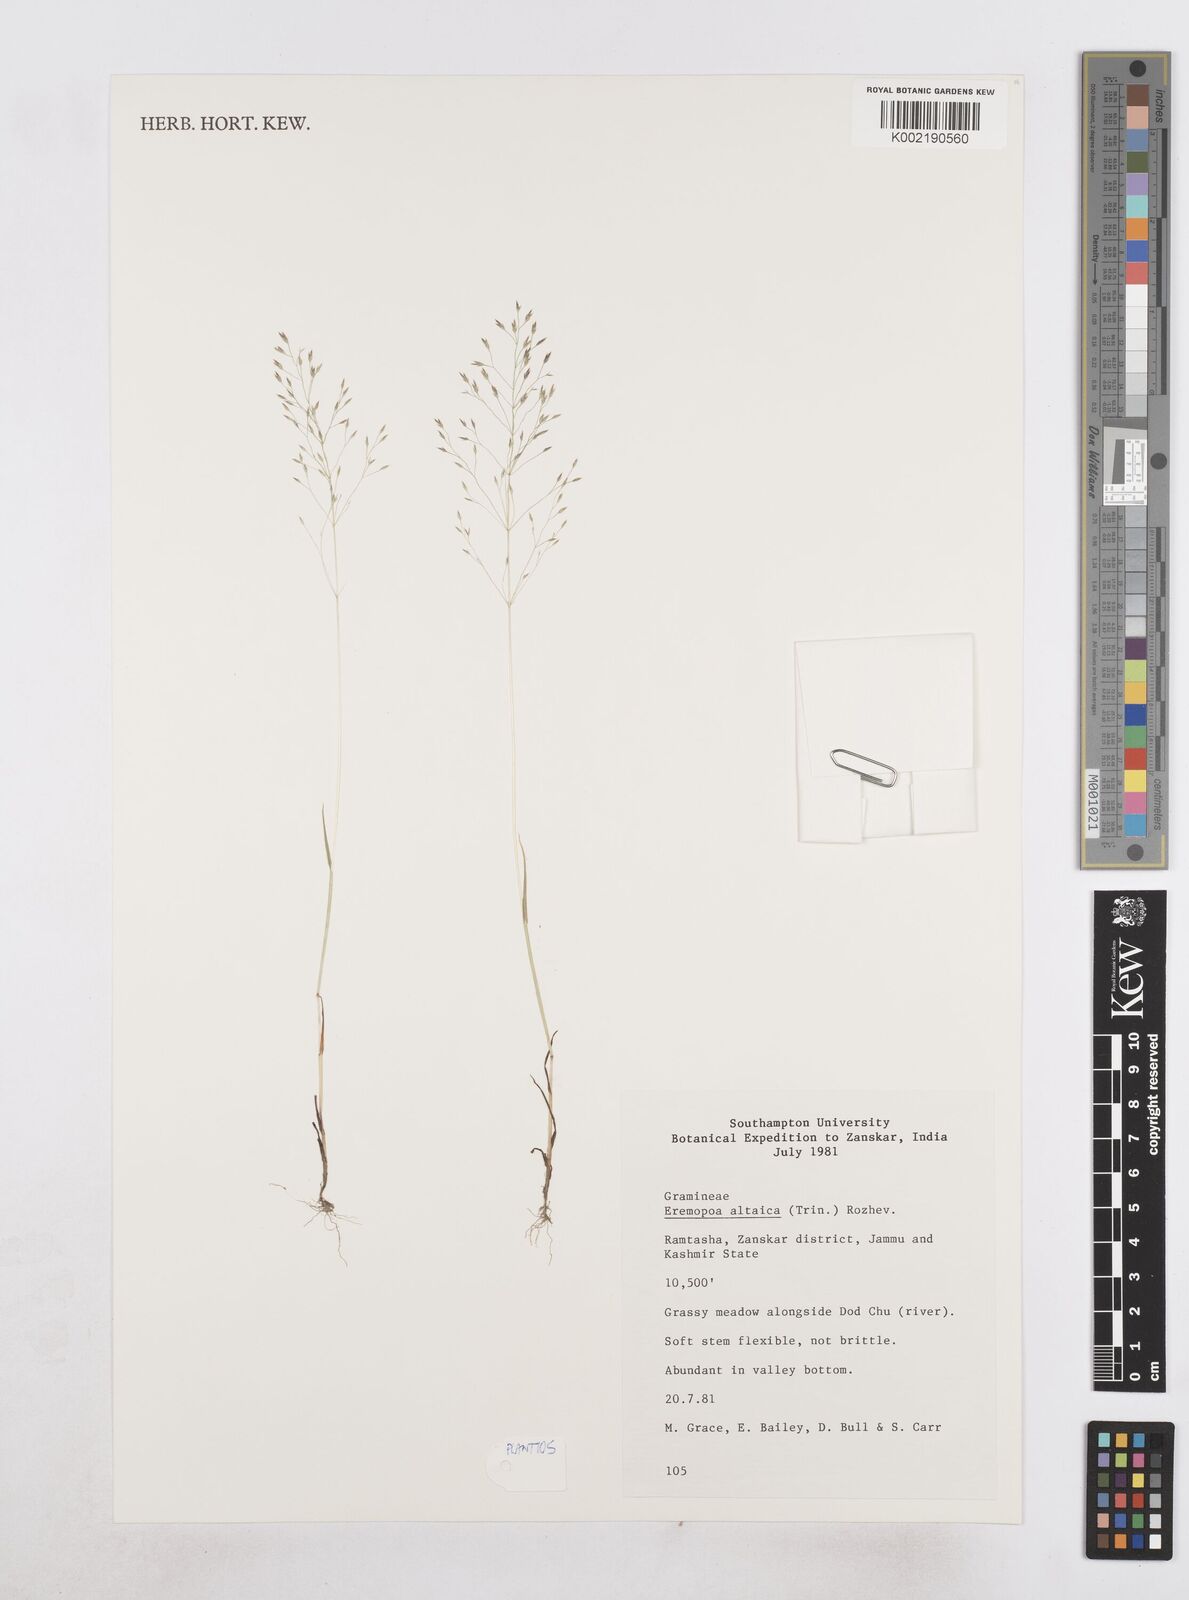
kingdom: Plantae
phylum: Tracheophyta
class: Liliopsida
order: Poales
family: Poaceae
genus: Poa
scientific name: Poa diaphora
